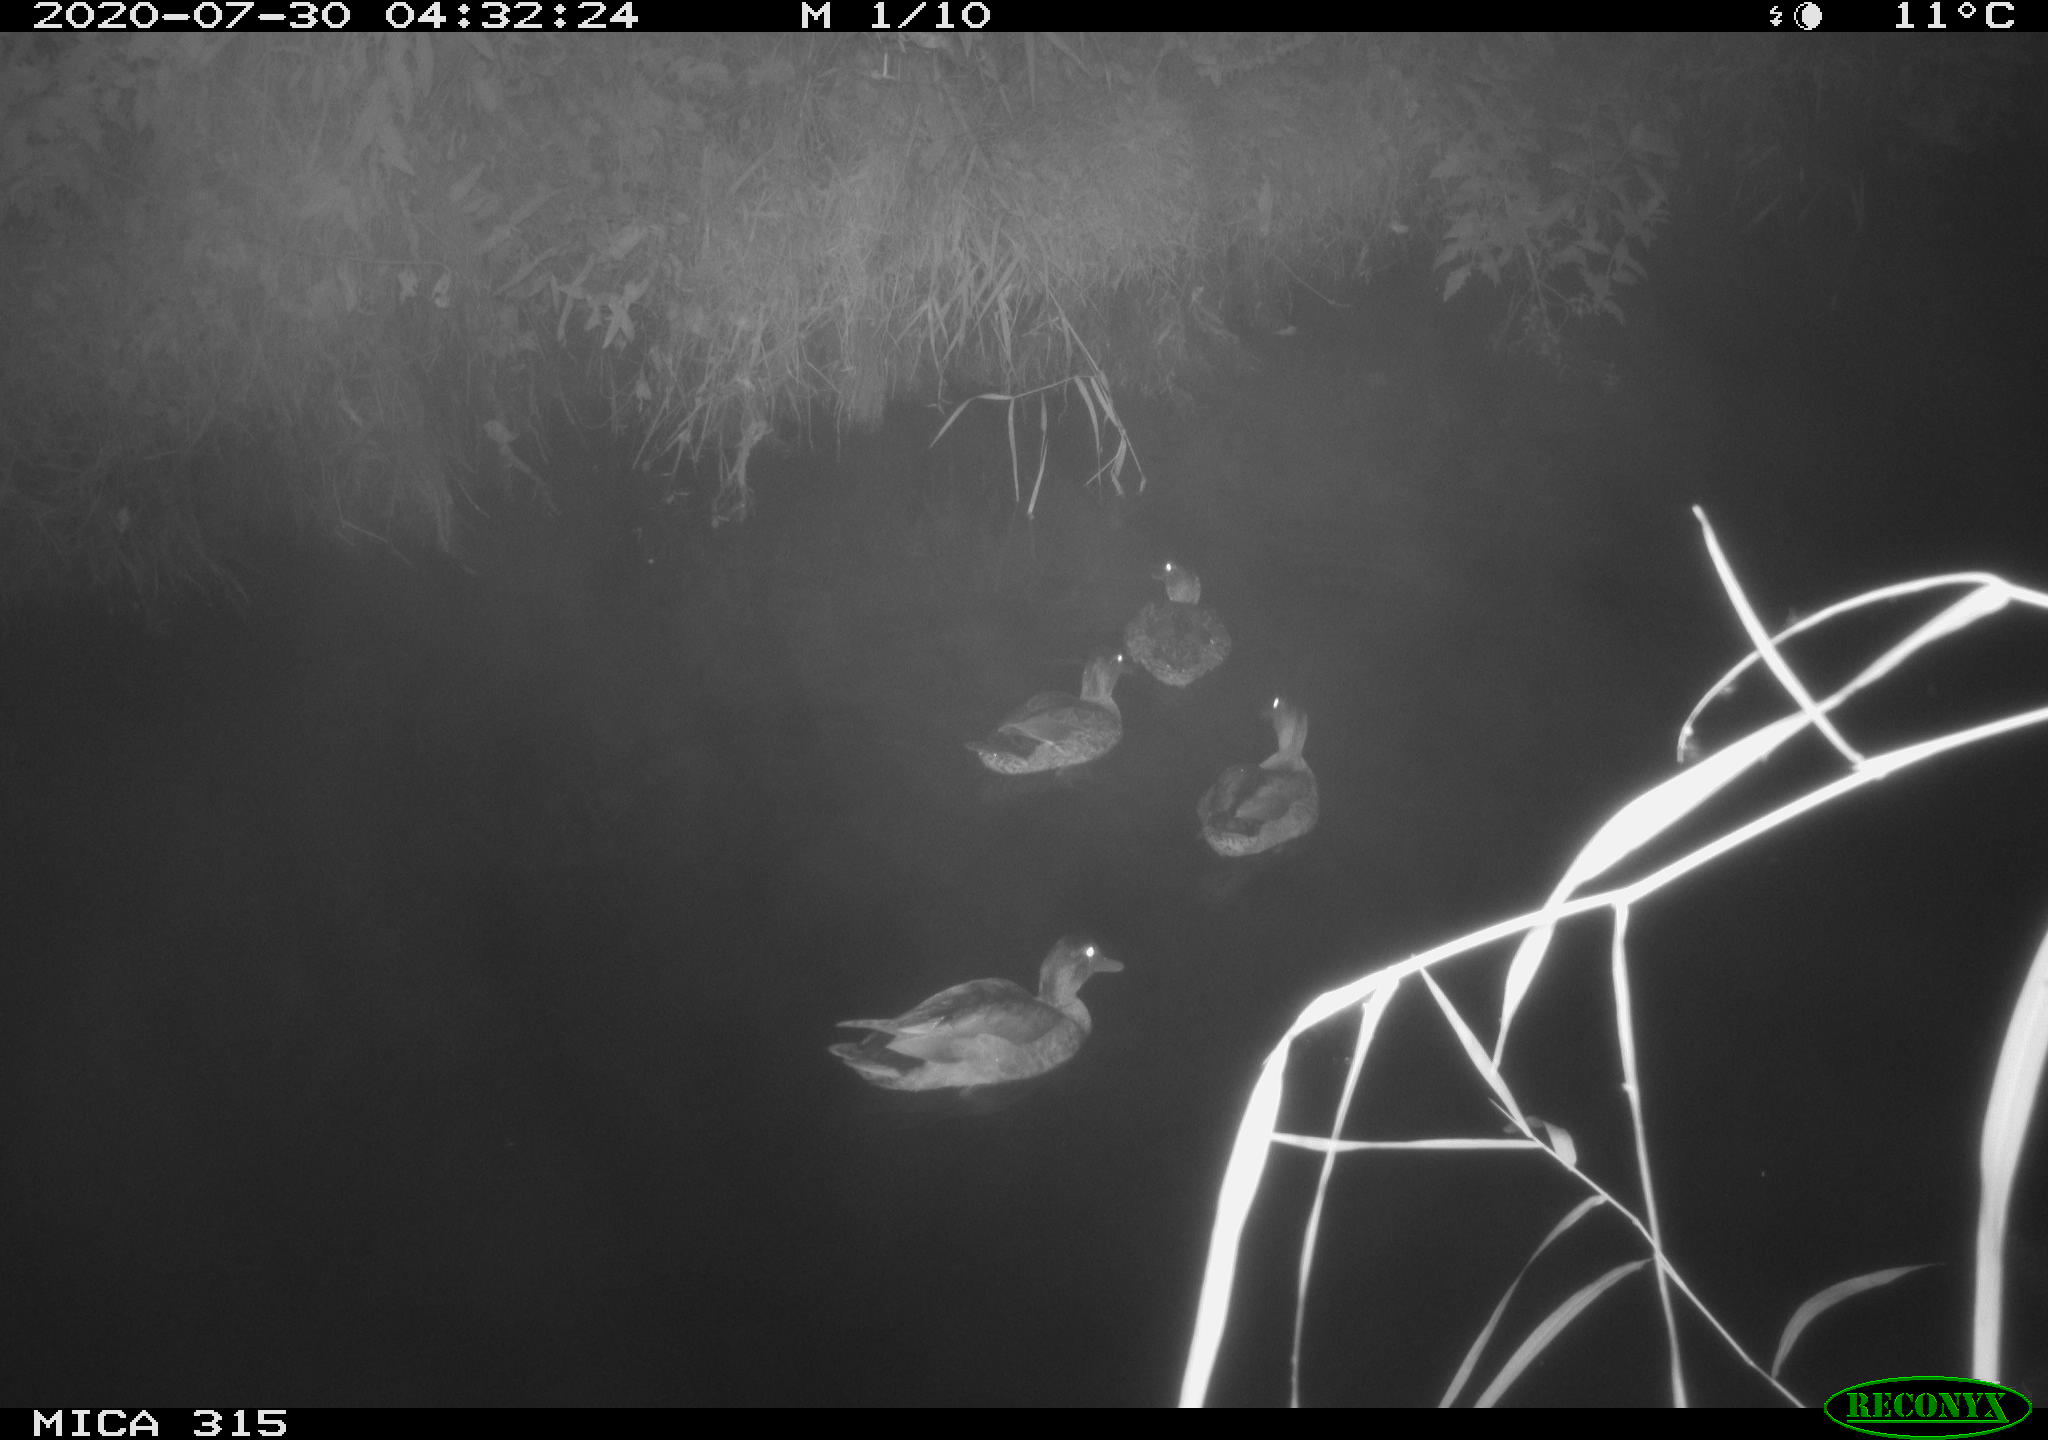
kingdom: Animalia
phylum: Chordata
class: Aves
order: Anseriformes
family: Anatidae
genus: Anas
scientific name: Anas platyrhynchos
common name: Mallard
